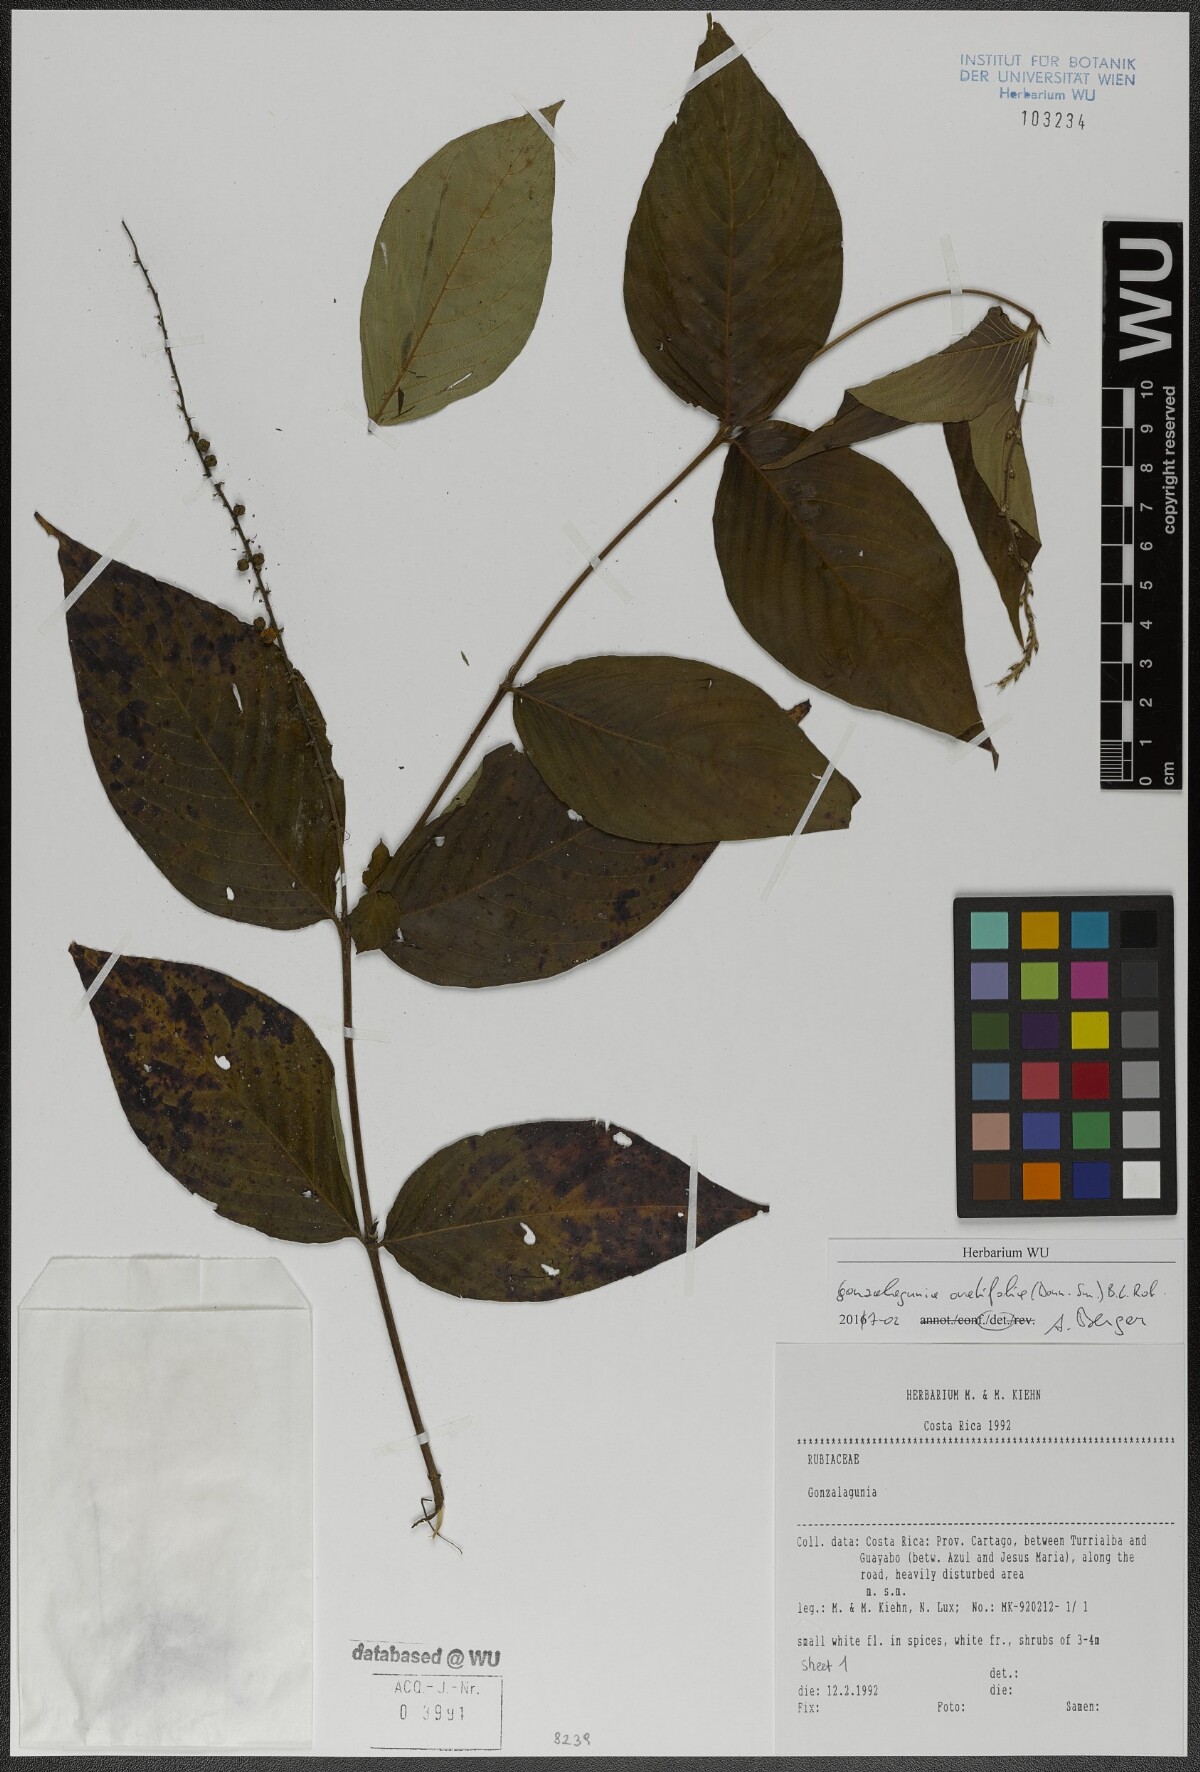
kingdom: Plantae
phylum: Tracheophyta
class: Magnoliopsida
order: Gentianales
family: Rubiaceae
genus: Gonzalagunia
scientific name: Gonzalagunia ovatifolia
